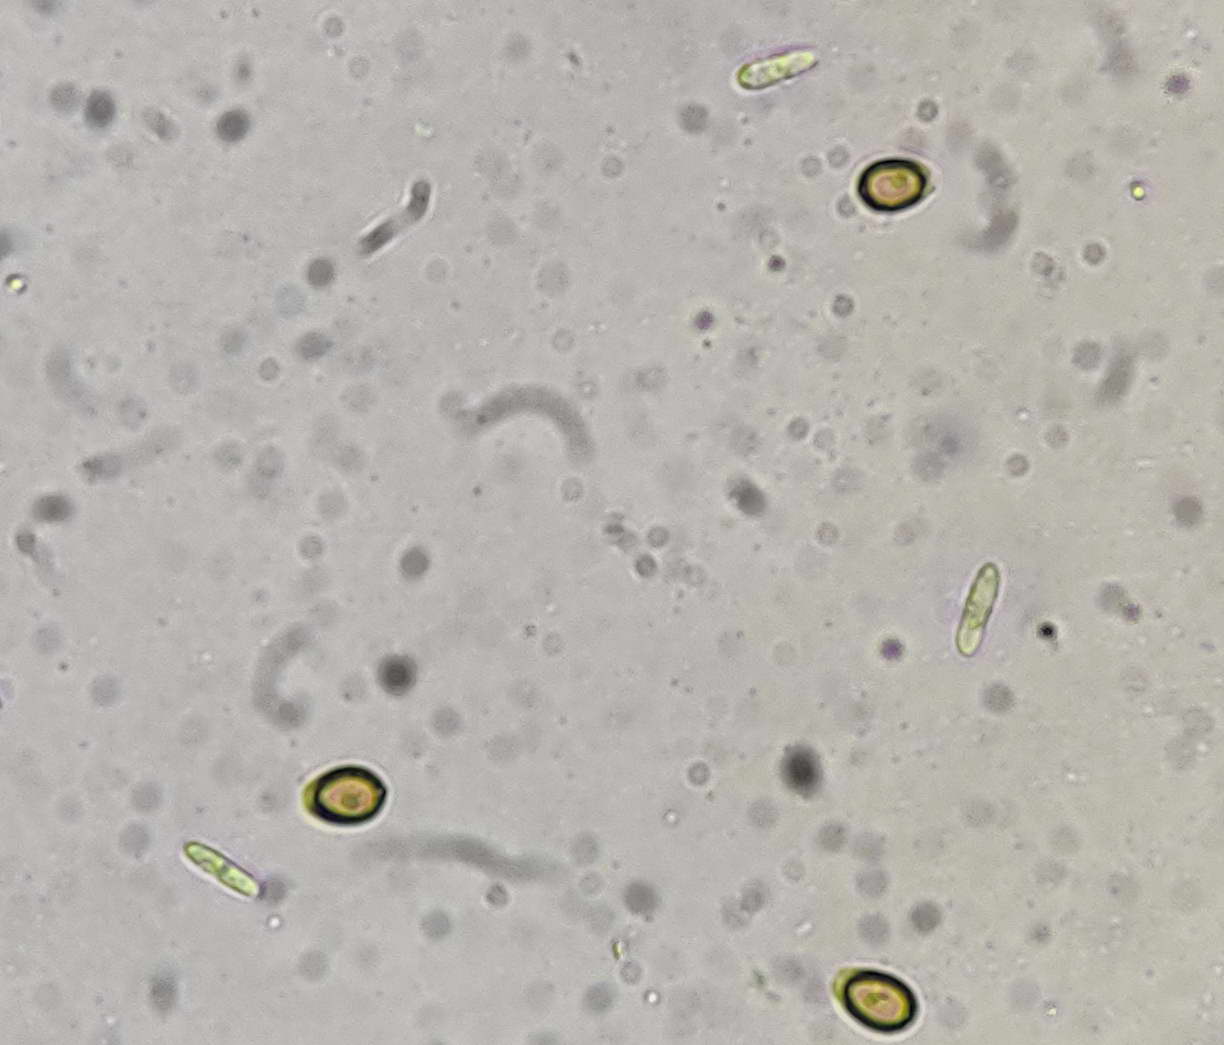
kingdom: Fungi
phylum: Ascomycota
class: Sordariomycetes
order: Hypocreales
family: Hypocreaceae
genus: Sporophagomyces
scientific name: Sporophagomyces chrysostomus
